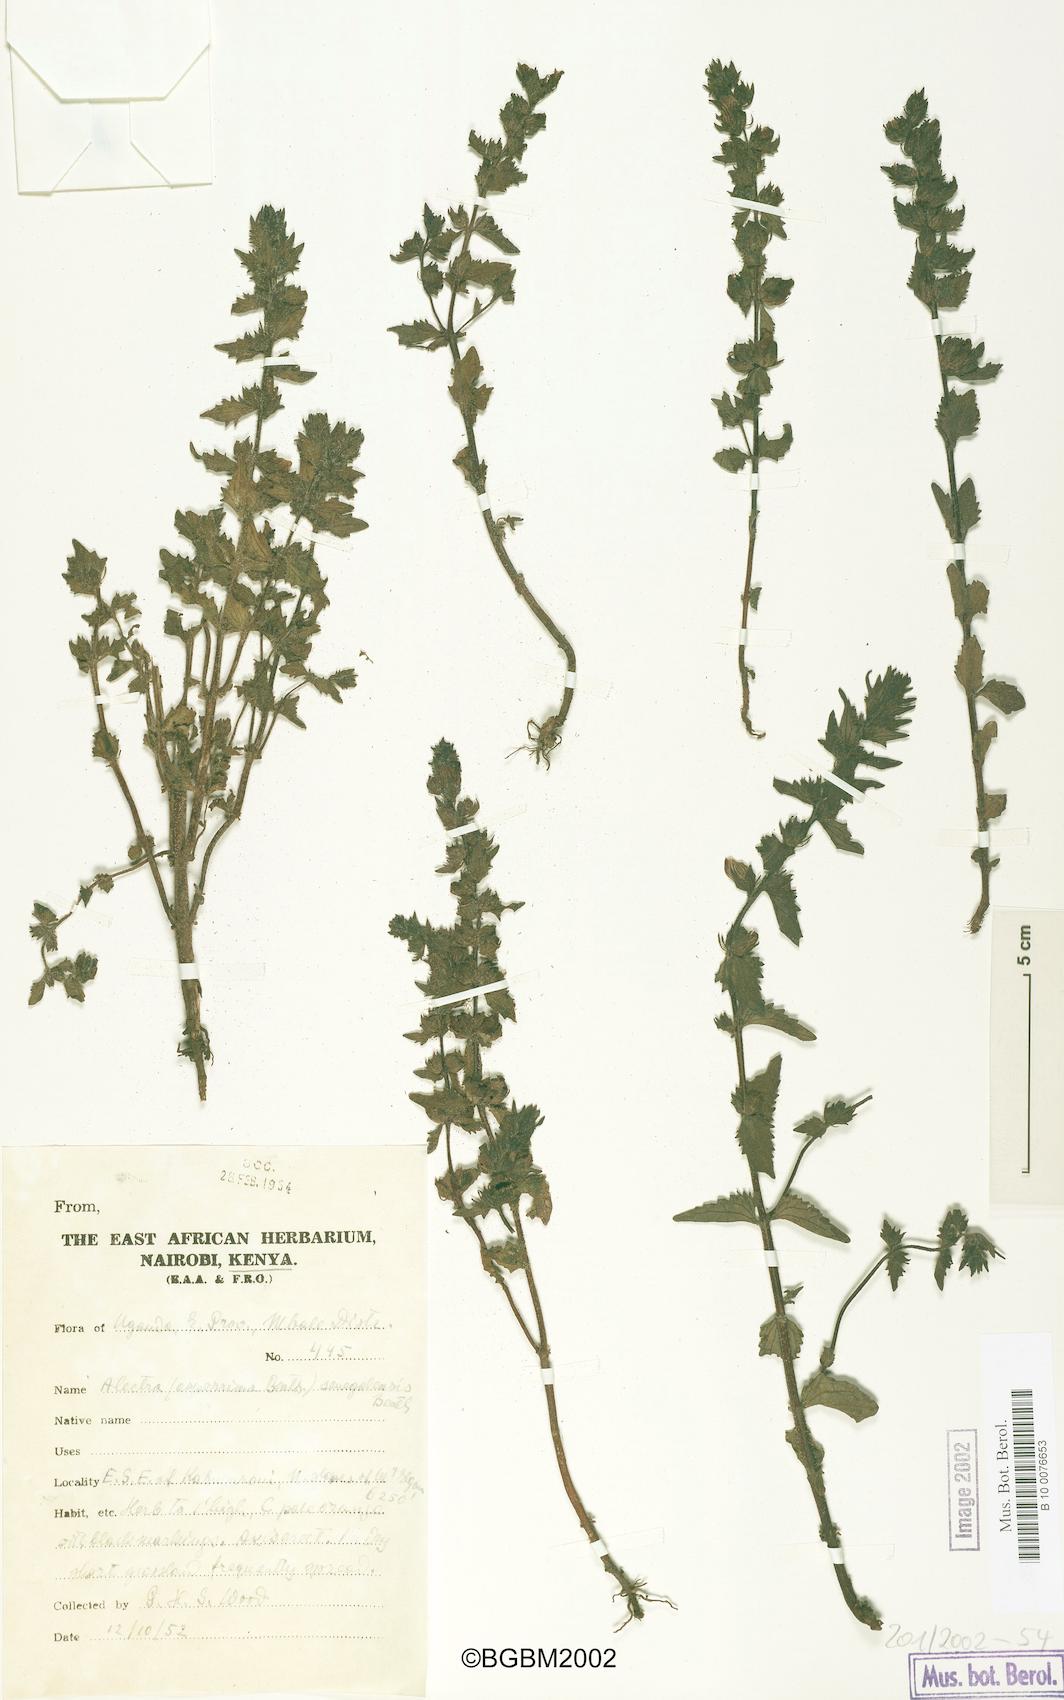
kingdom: Plantae
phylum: Tracheophyta
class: Magnoliopsida
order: Lamiales
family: Orobanchaceae
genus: Alectra
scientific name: Alectra sessiliflora
